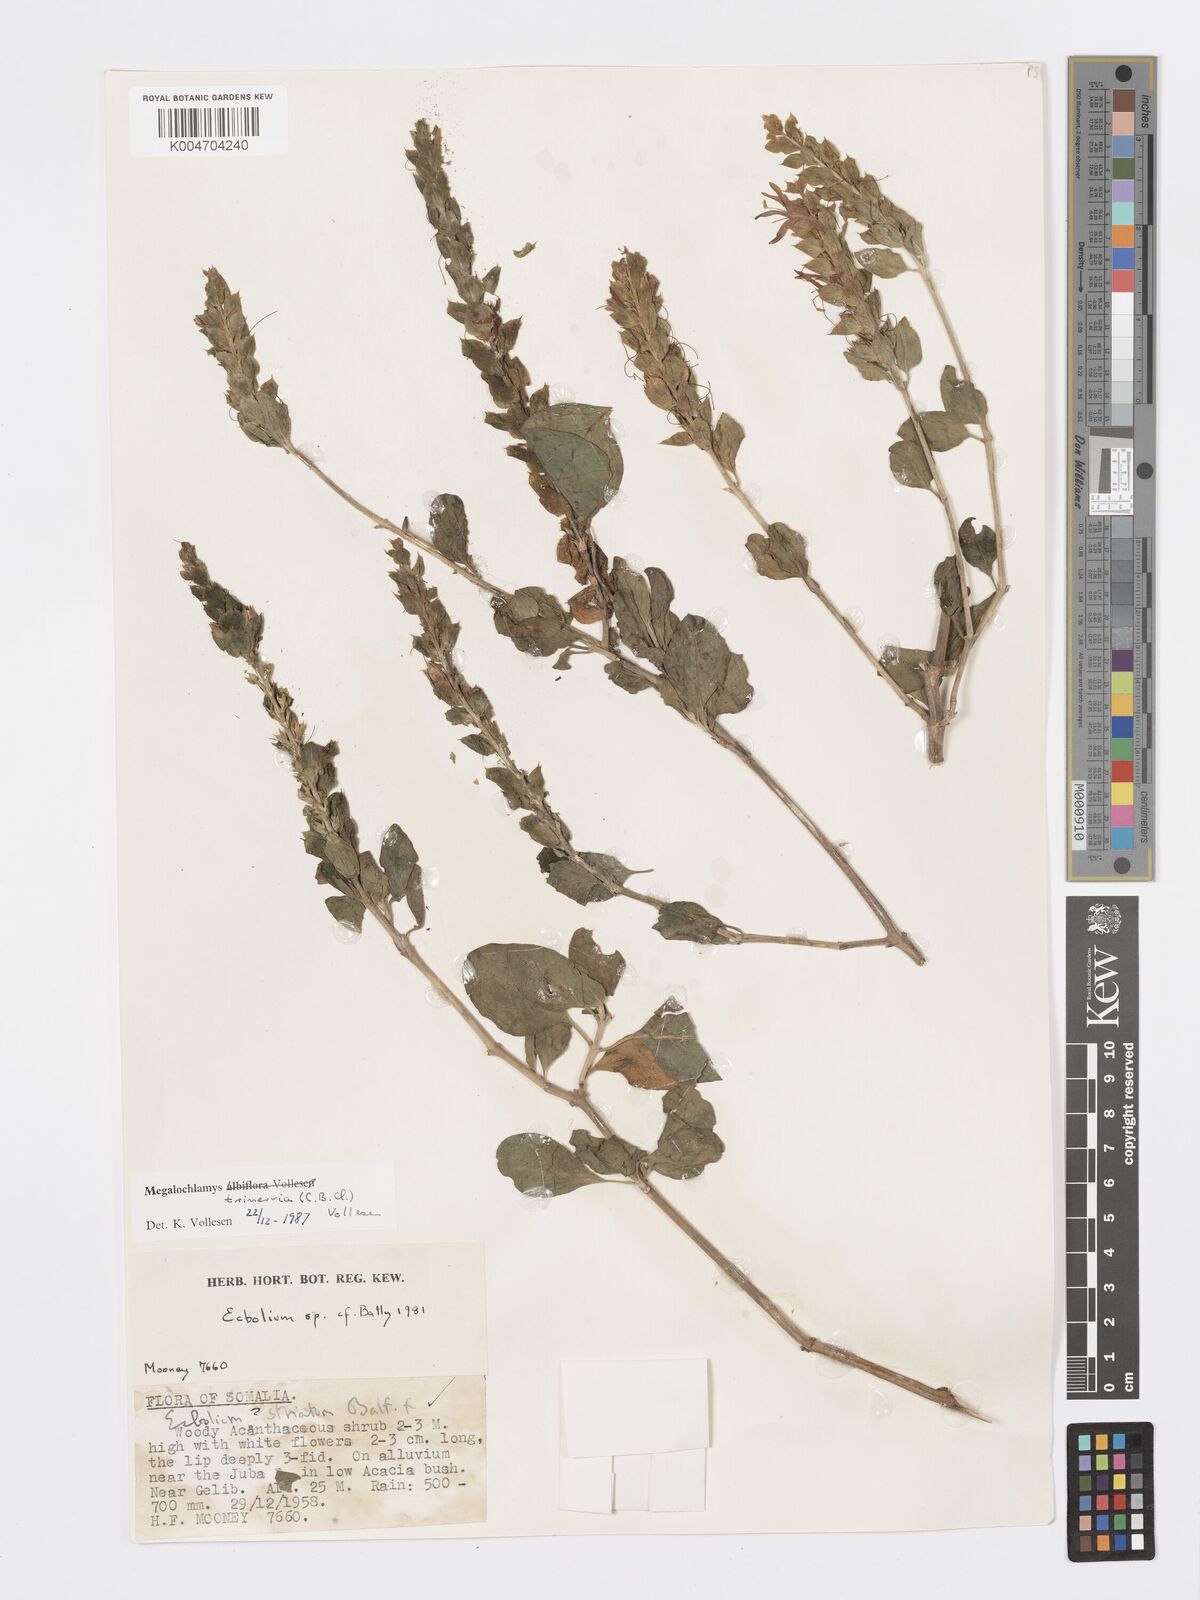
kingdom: Plantae
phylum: Tracheophyta
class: Magnoliopsida
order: Lamiales
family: Acanthaceae
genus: Megalochlamys
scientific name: Megalochlamys trinervia
